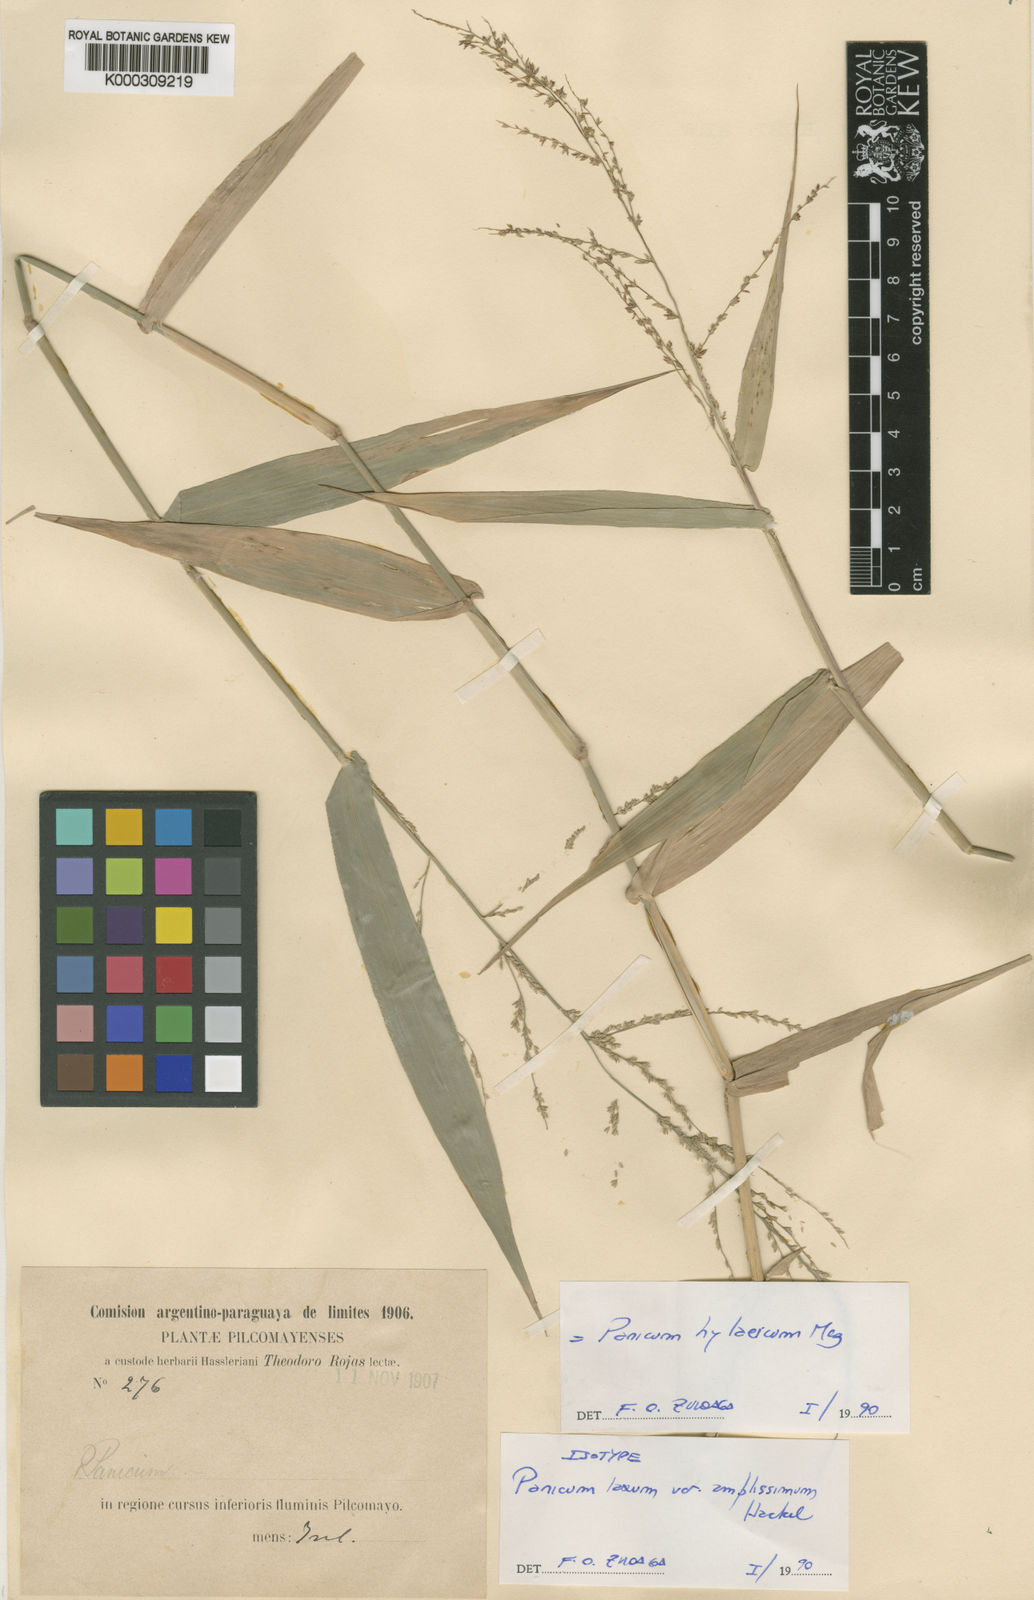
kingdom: Plantae
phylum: Tracheophyta
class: Liliopsida
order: Poales
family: Poaceae
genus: Rugoloa
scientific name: Rugoloa hylaeica
